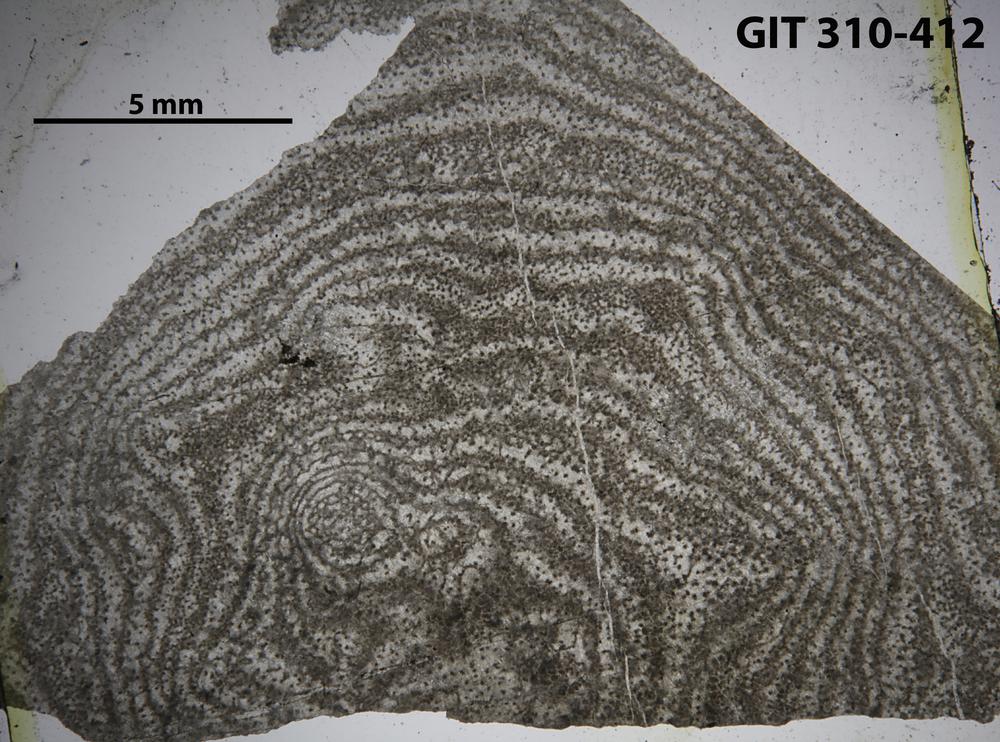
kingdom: Animalia
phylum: Porifera
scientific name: Porifera
